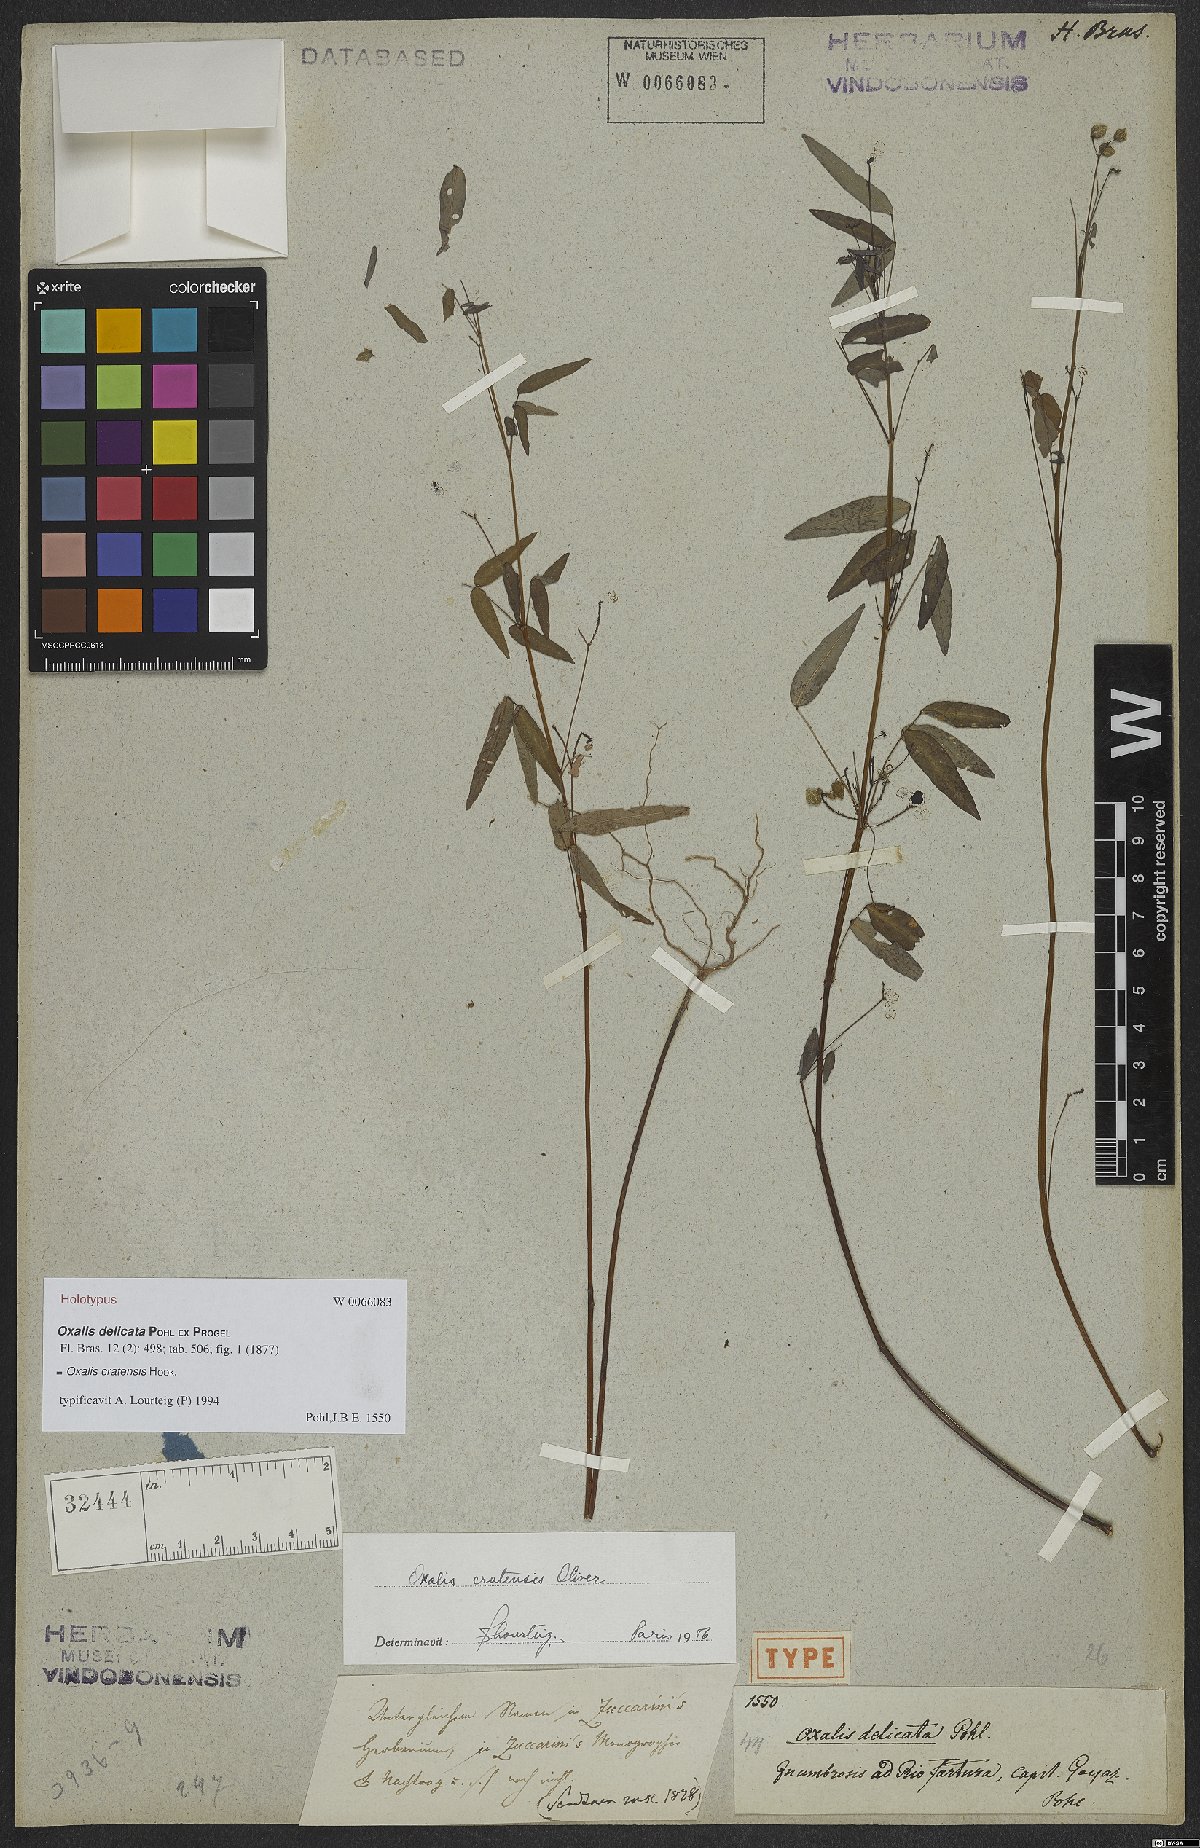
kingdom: Plantae
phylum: Tracheophyta
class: Magnoliopsida
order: Oxalidales
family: Oxalidaceae
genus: Oxalis
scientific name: Oxalis cratensis
